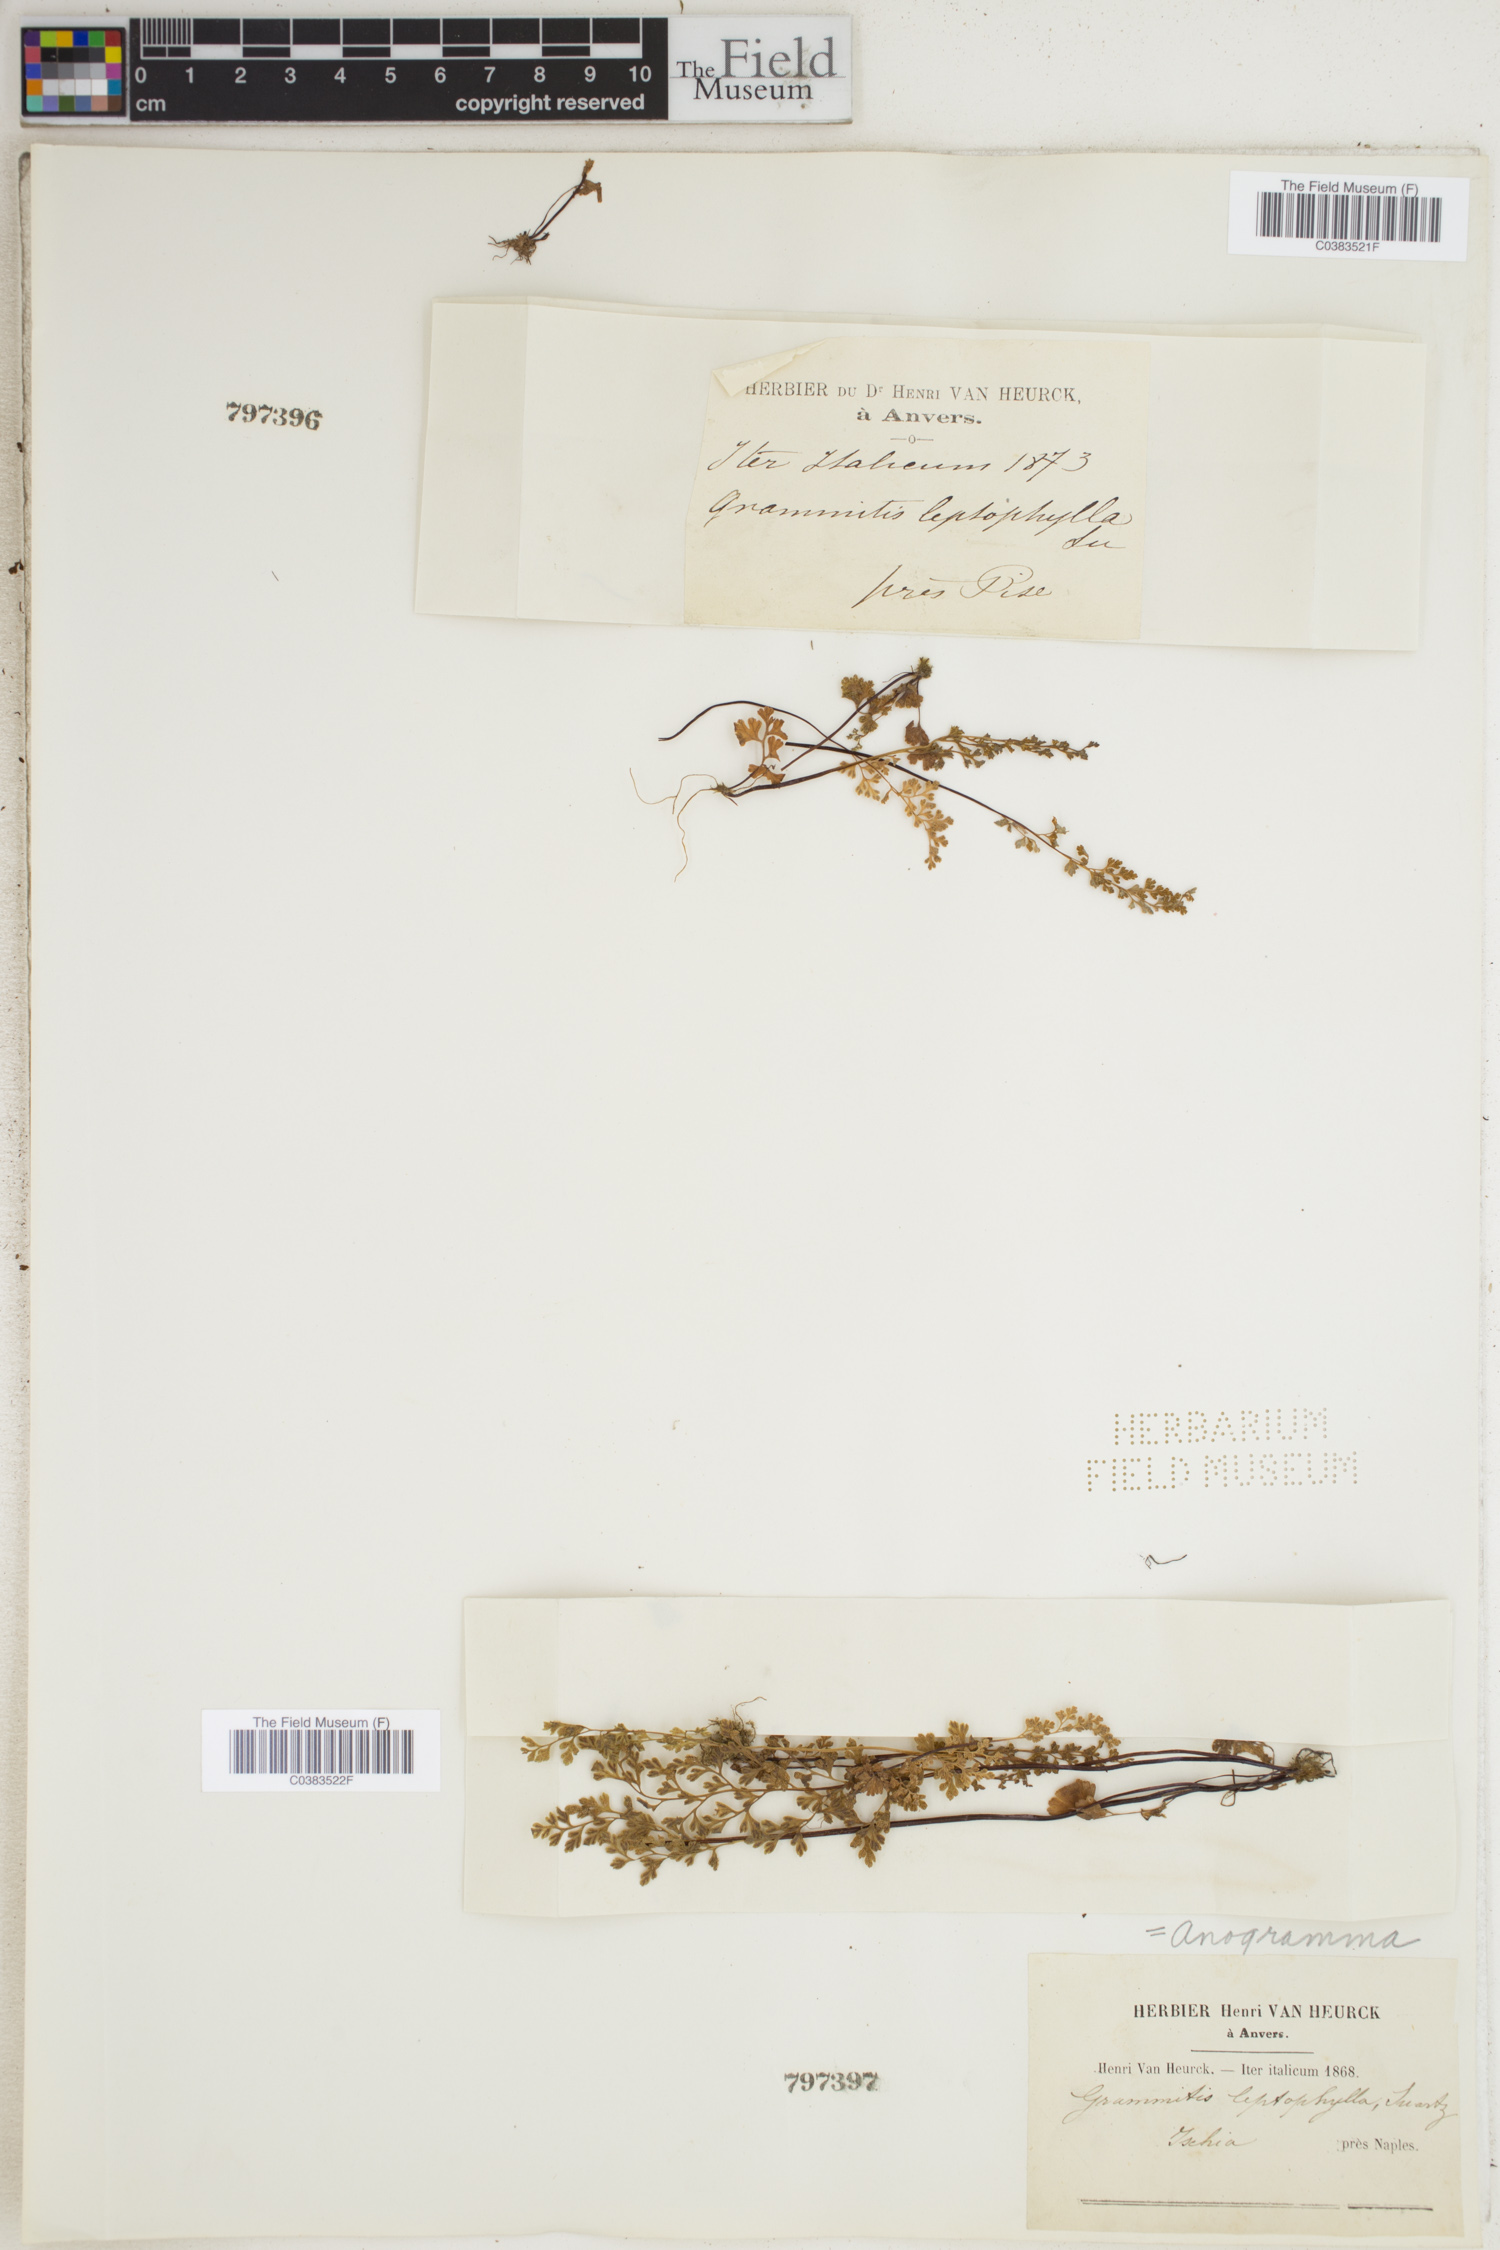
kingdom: Plantae
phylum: Tracheophyta
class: Polypodiopsida
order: Polypodiales
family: Pteridaceae
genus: Anogramma
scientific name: Anogramma leptophylla
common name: Jersey fern
